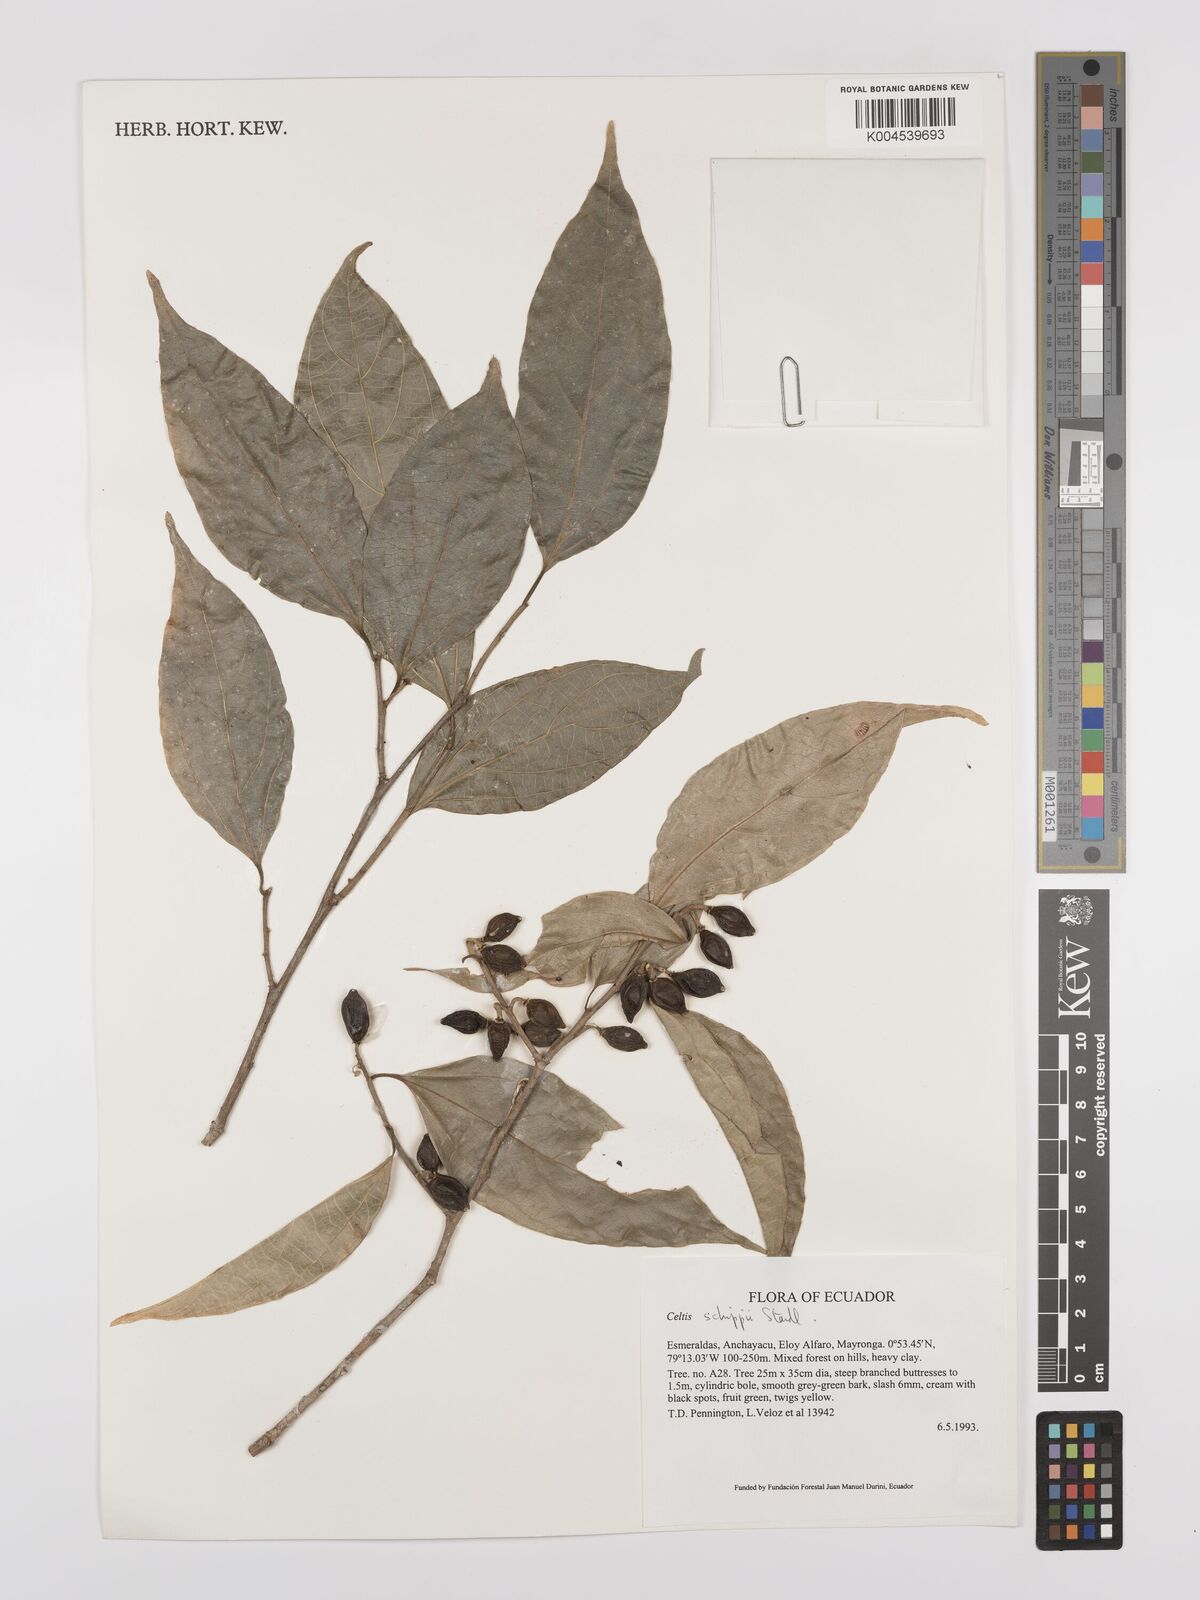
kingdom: Plantae
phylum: Tracheophyta
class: Magnoliopsida
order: Rosales
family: Cannabaceae
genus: Celtis
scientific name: Celtis schippii
